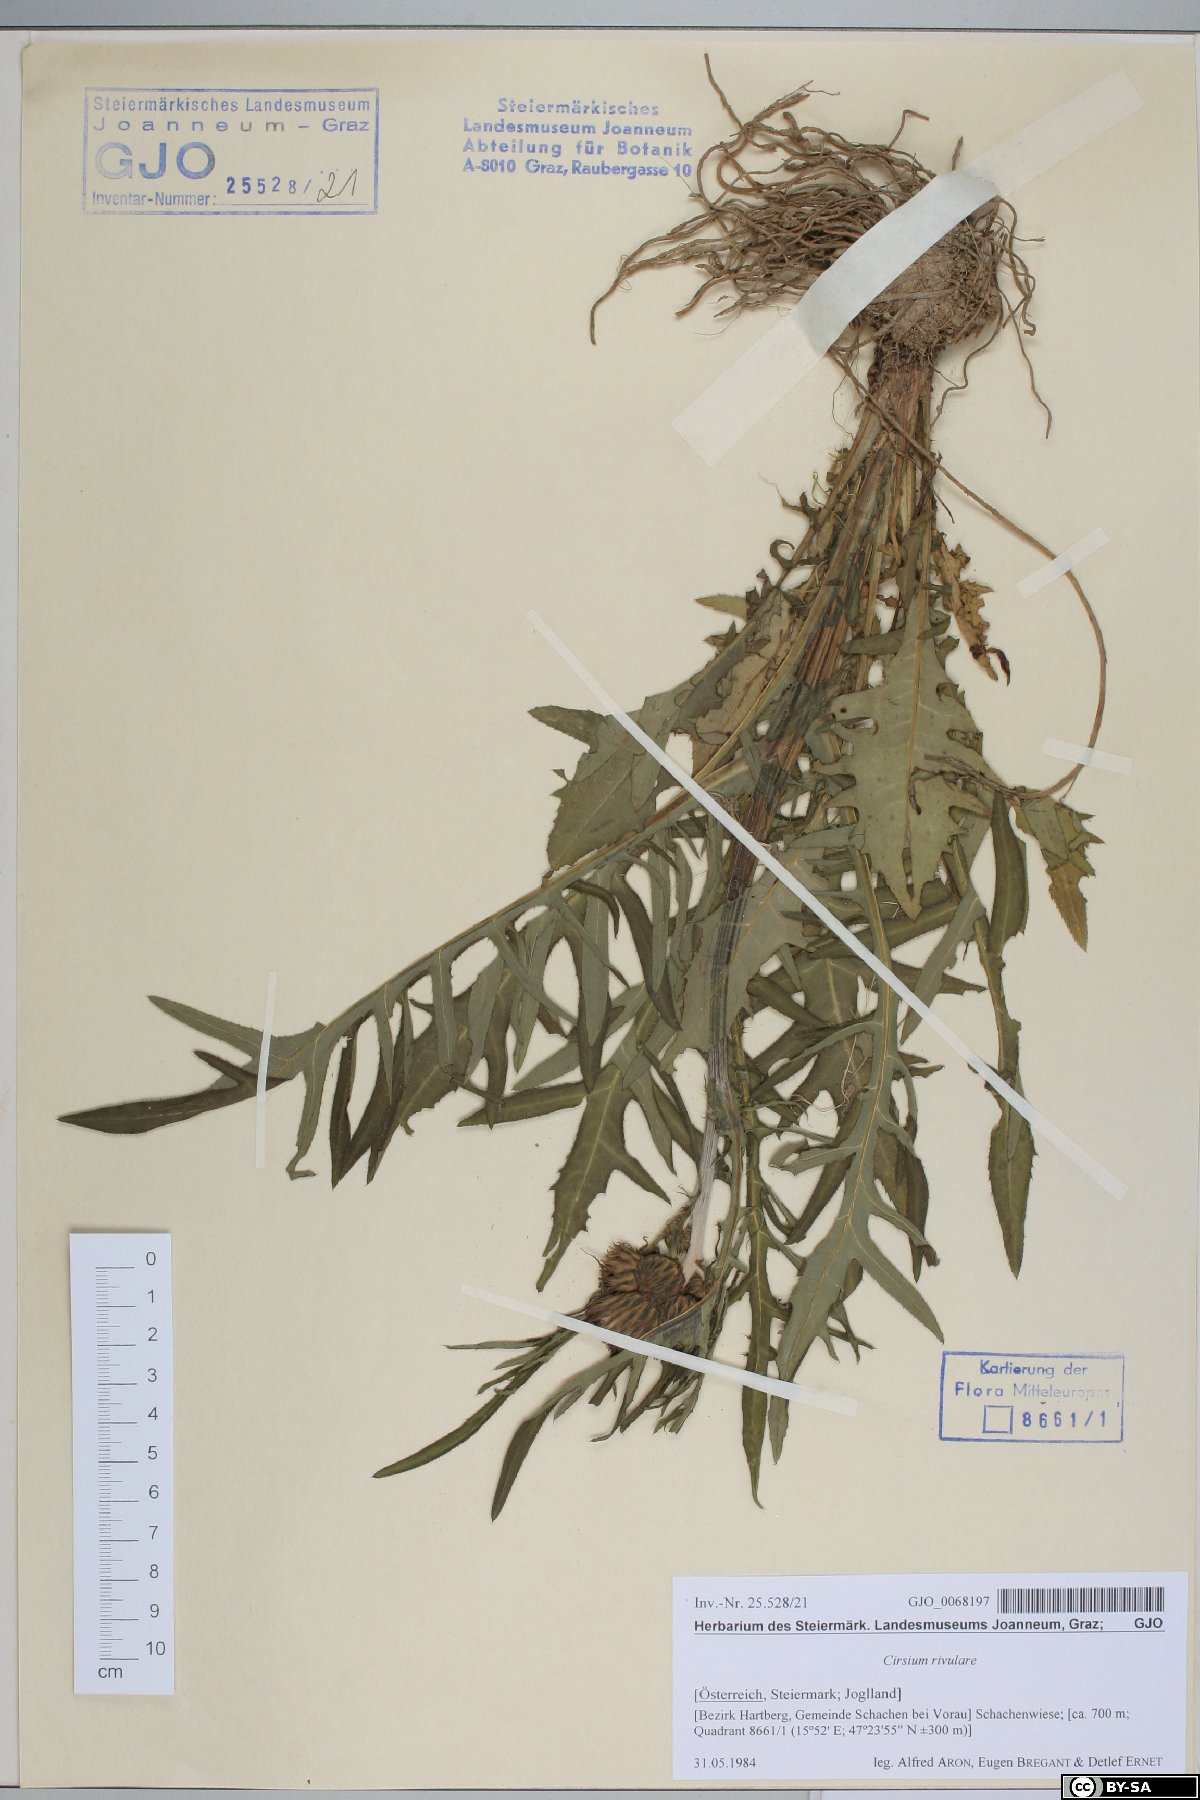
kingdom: Plantae
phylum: Tracheophyta
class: Magnoliopsida
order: Asterales
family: Asteraceae
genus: Cirsium
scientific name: Cirsium rivulare
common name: Brook thistle
